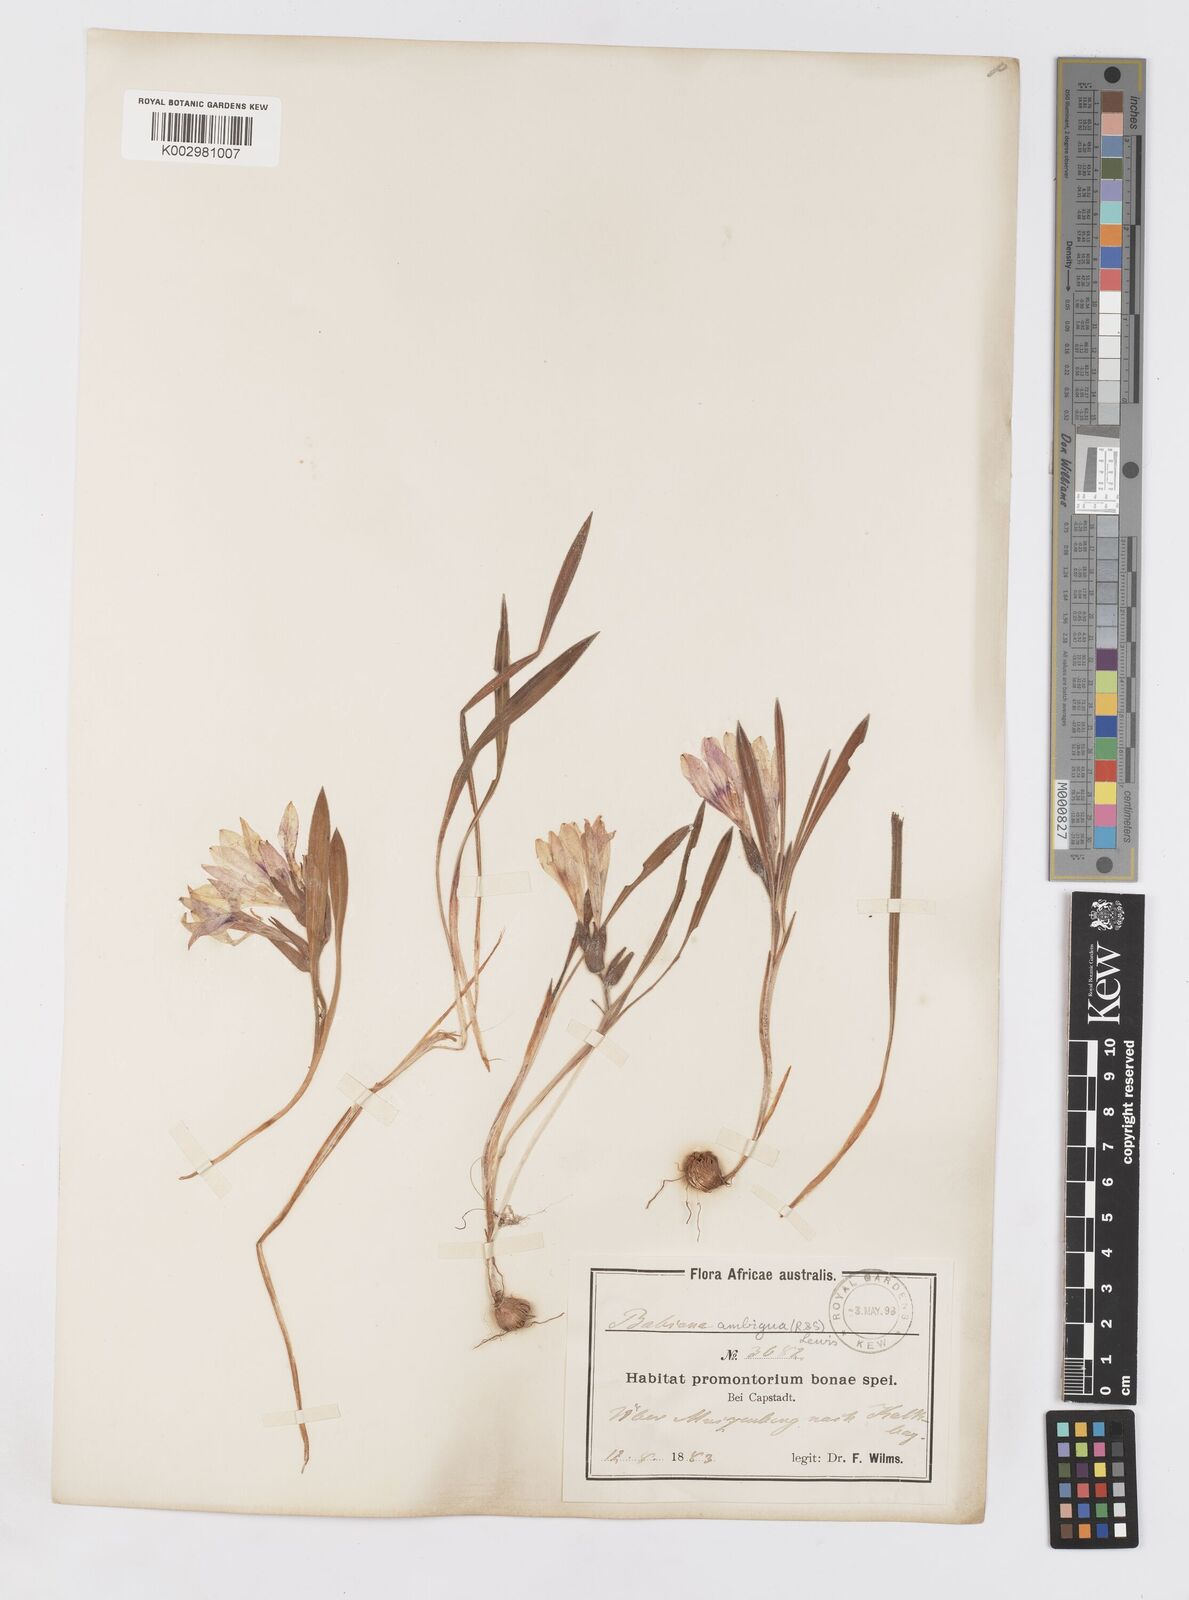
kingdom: Plantae
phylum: Tracheophyta
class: Liliopsida
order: Asparagales
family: Iridaceae
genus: Babiana
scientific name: Babiana ambigua
